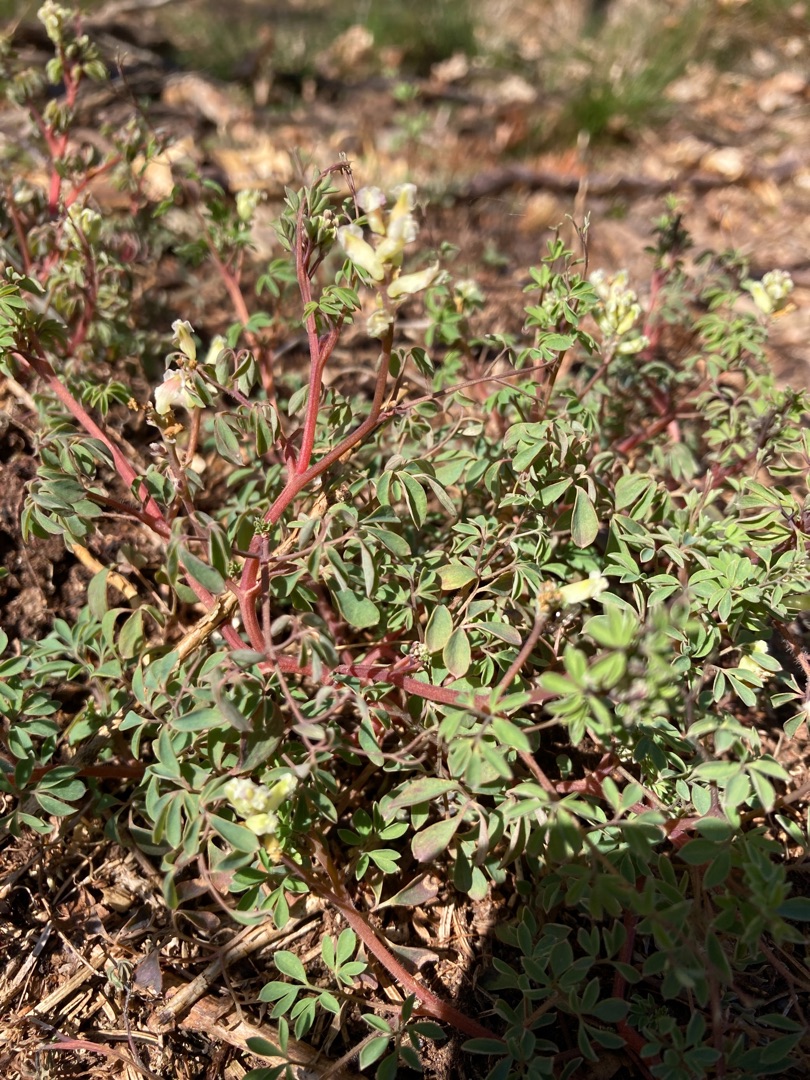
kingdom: Plantae
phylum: Tracheophyta
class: Magnoliopsida
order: Ranunculales
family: Papaveraceae
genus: Ceratocapnos
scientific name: Ceratocapnos claviculata
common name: Klatrende lærkespore
